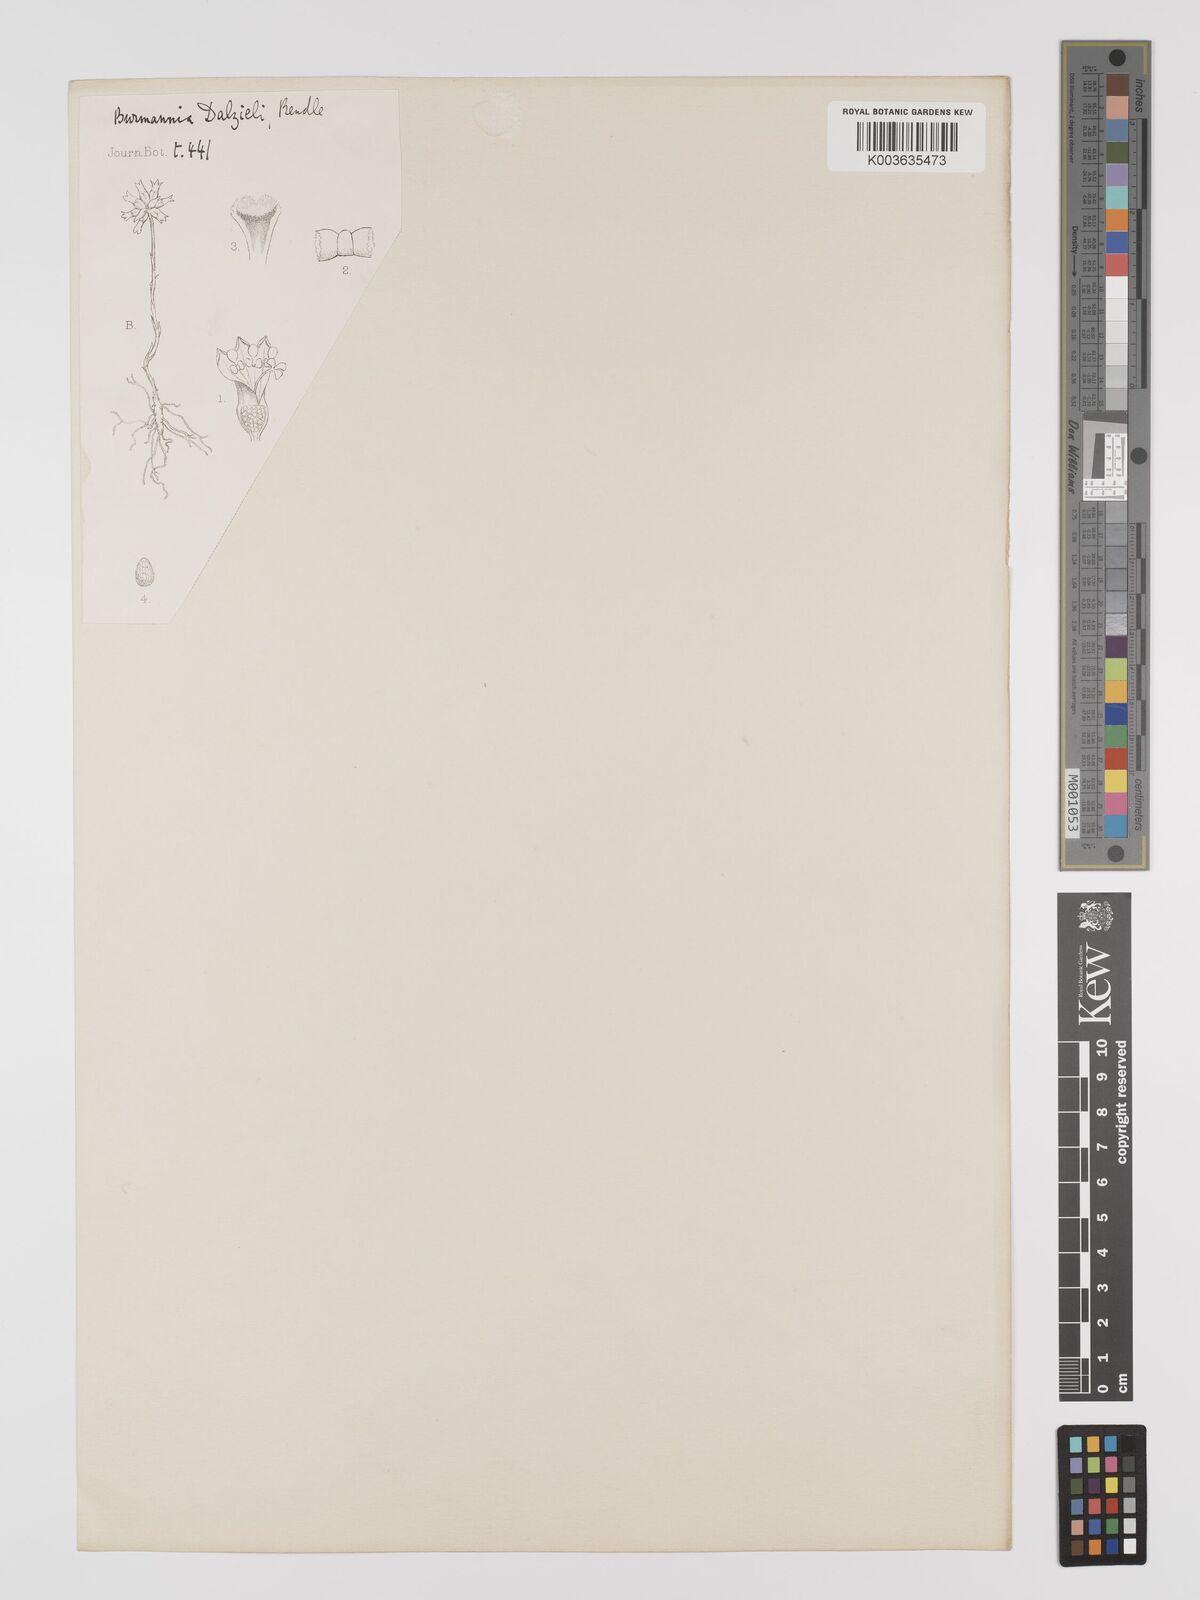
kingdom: Plantae
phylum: Tracheophyta
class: Liliopsida
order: Dioscoreales
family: Burmanniaceae
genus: Burmannia
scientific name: Burmannia championii
